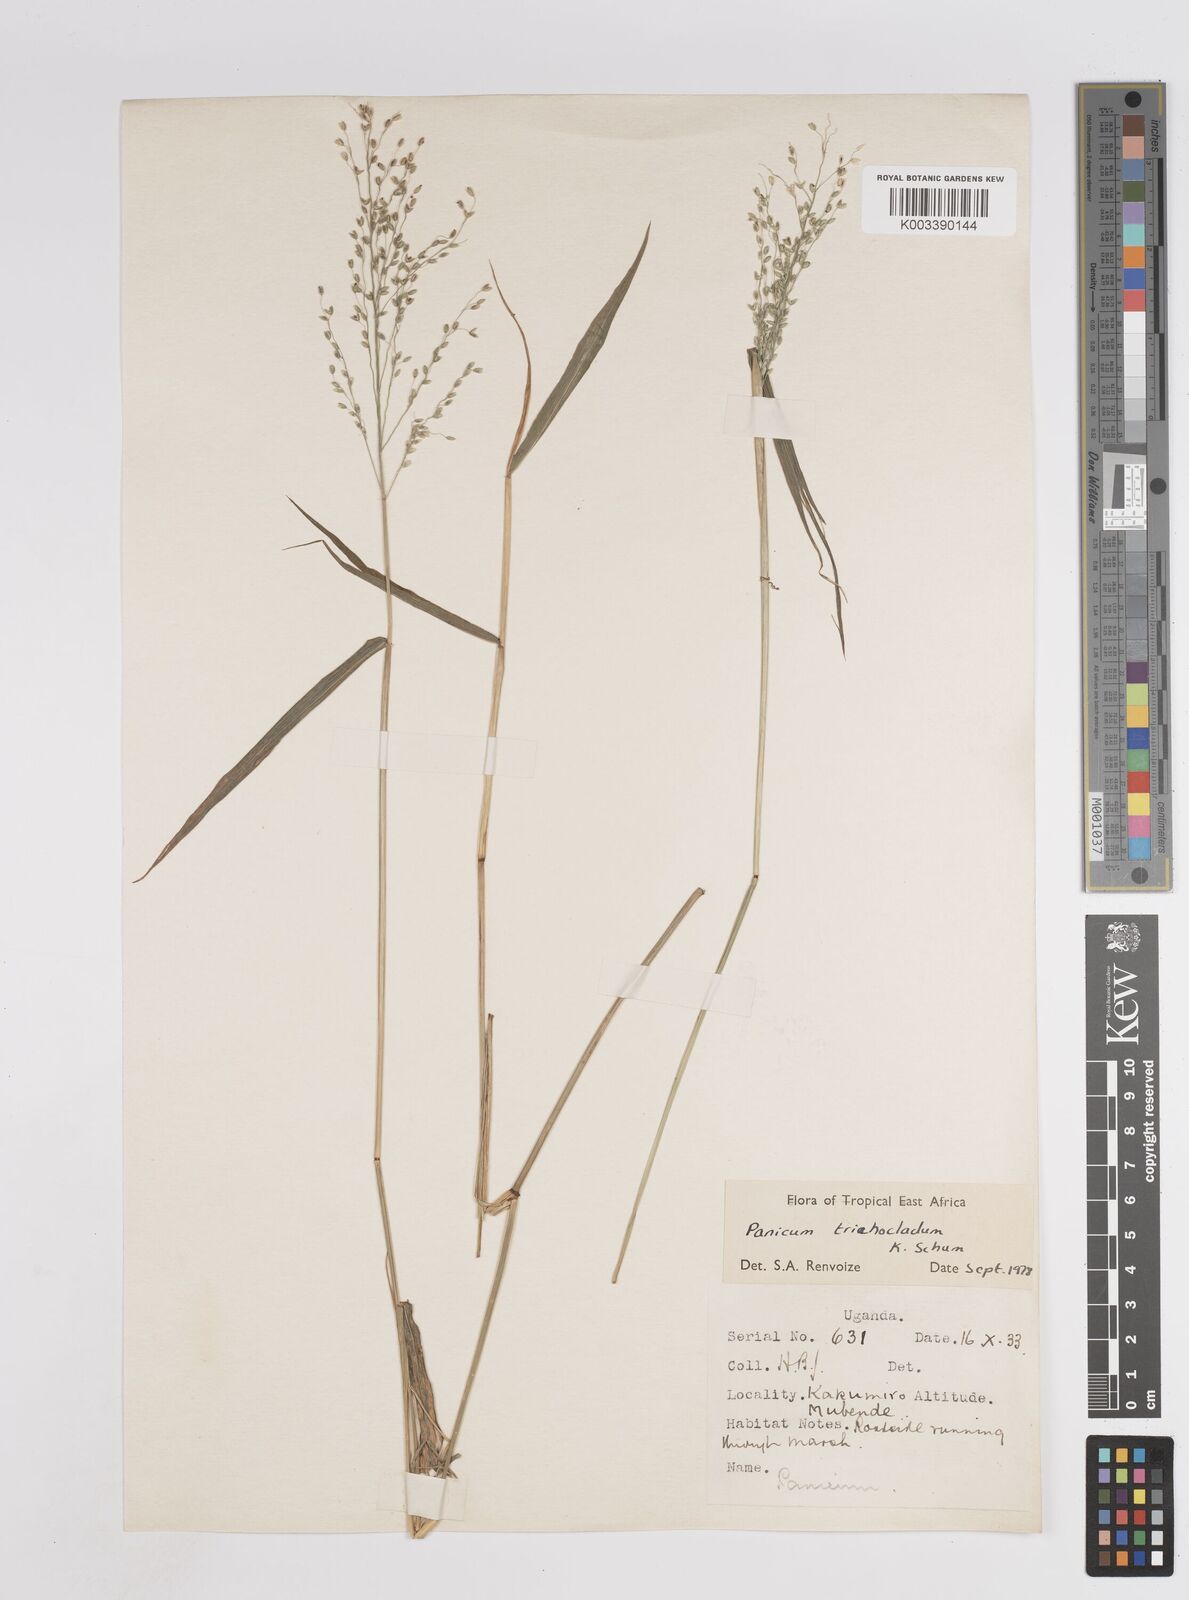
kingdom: Plantae
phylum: Tracheophyta
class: Liliopsida
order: Poales
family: Poaceae
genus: Megathyrsus
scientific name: Megathyrsus maximus
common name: Guineagrass
